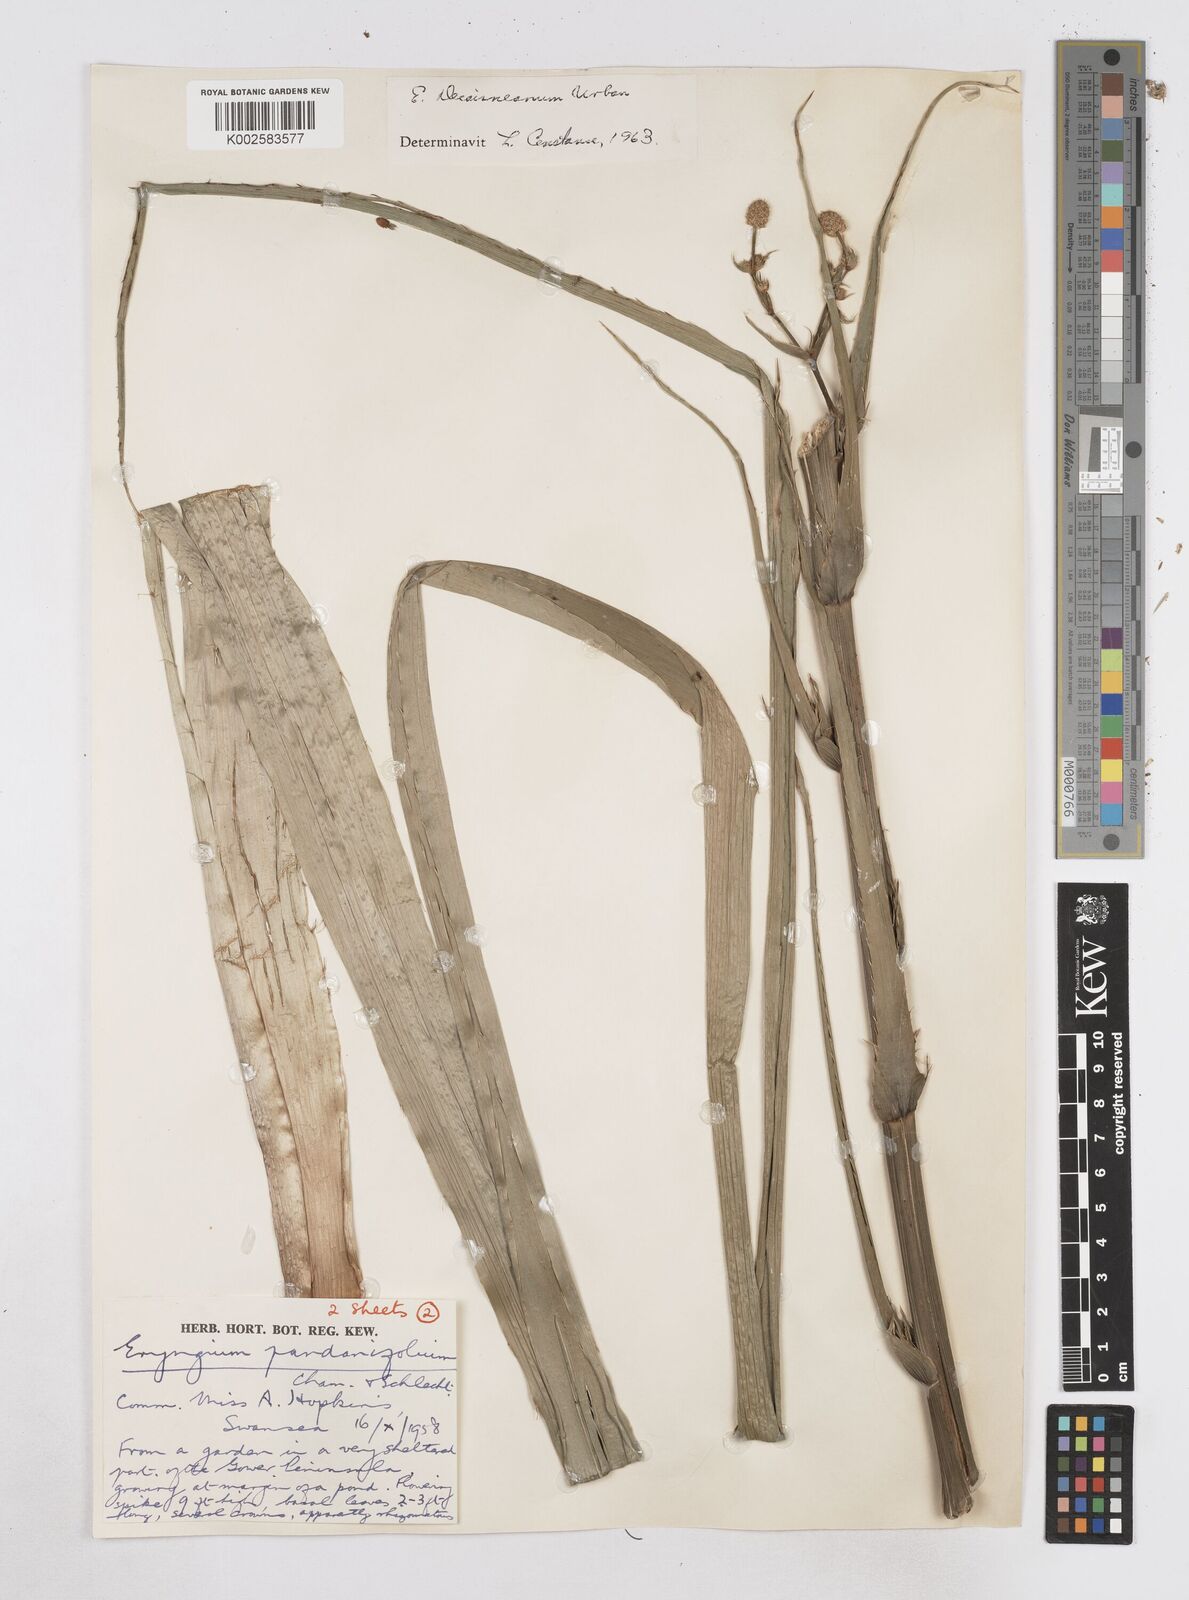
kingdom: Plantae
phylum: Tracheophyta
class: Magnoliopsida
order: Apiales
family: Apiaceae
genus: Eryngium
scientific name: Eryngium pandanifolium
